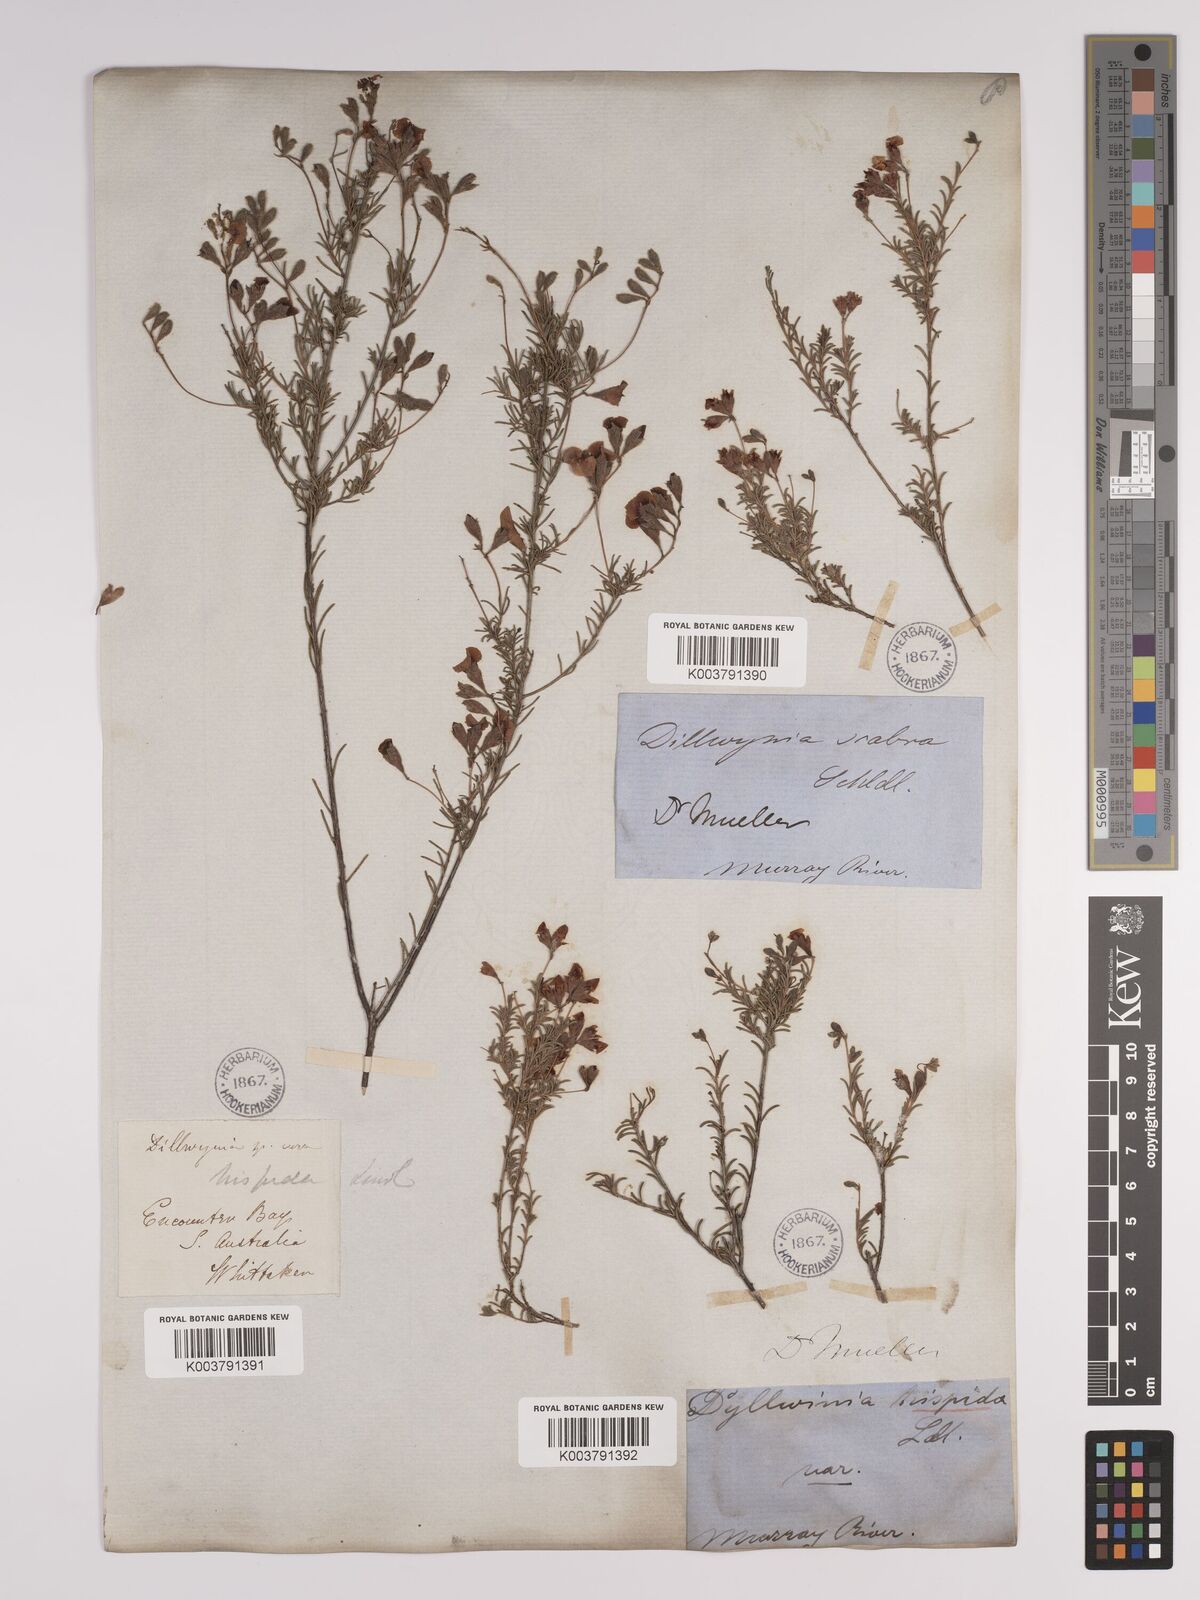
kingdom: Plantae
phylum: Tracheophyta
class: Magnoliopsida
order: Fabales
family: Fabaceae
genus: Dillwynia
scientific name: Dillwynia hispida
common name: Red parrot-pea
